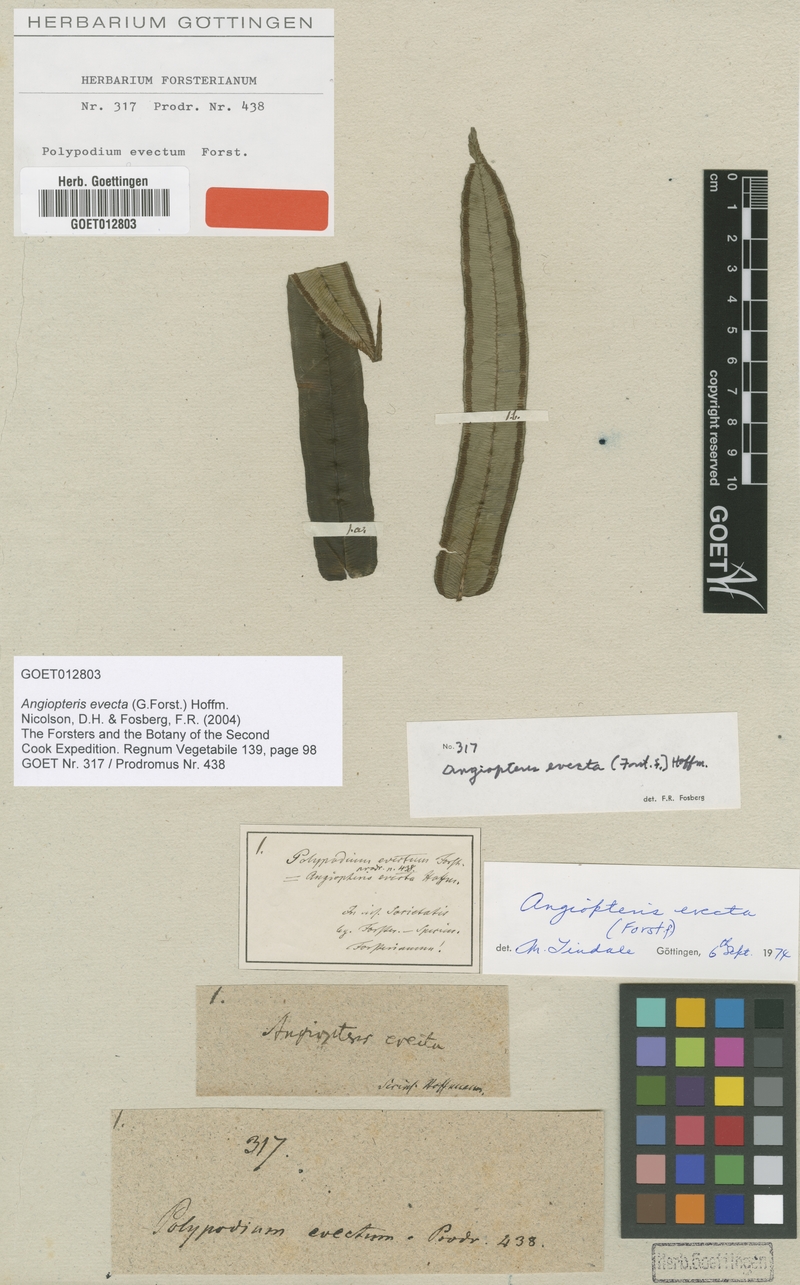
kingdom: Plantae
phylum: Tracheophyta
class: Polypodiopsida
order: Marattiales
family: Marattiaceae
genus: Angiopteris
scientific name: Angiopteris evecta
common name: Mule's-foot fern
